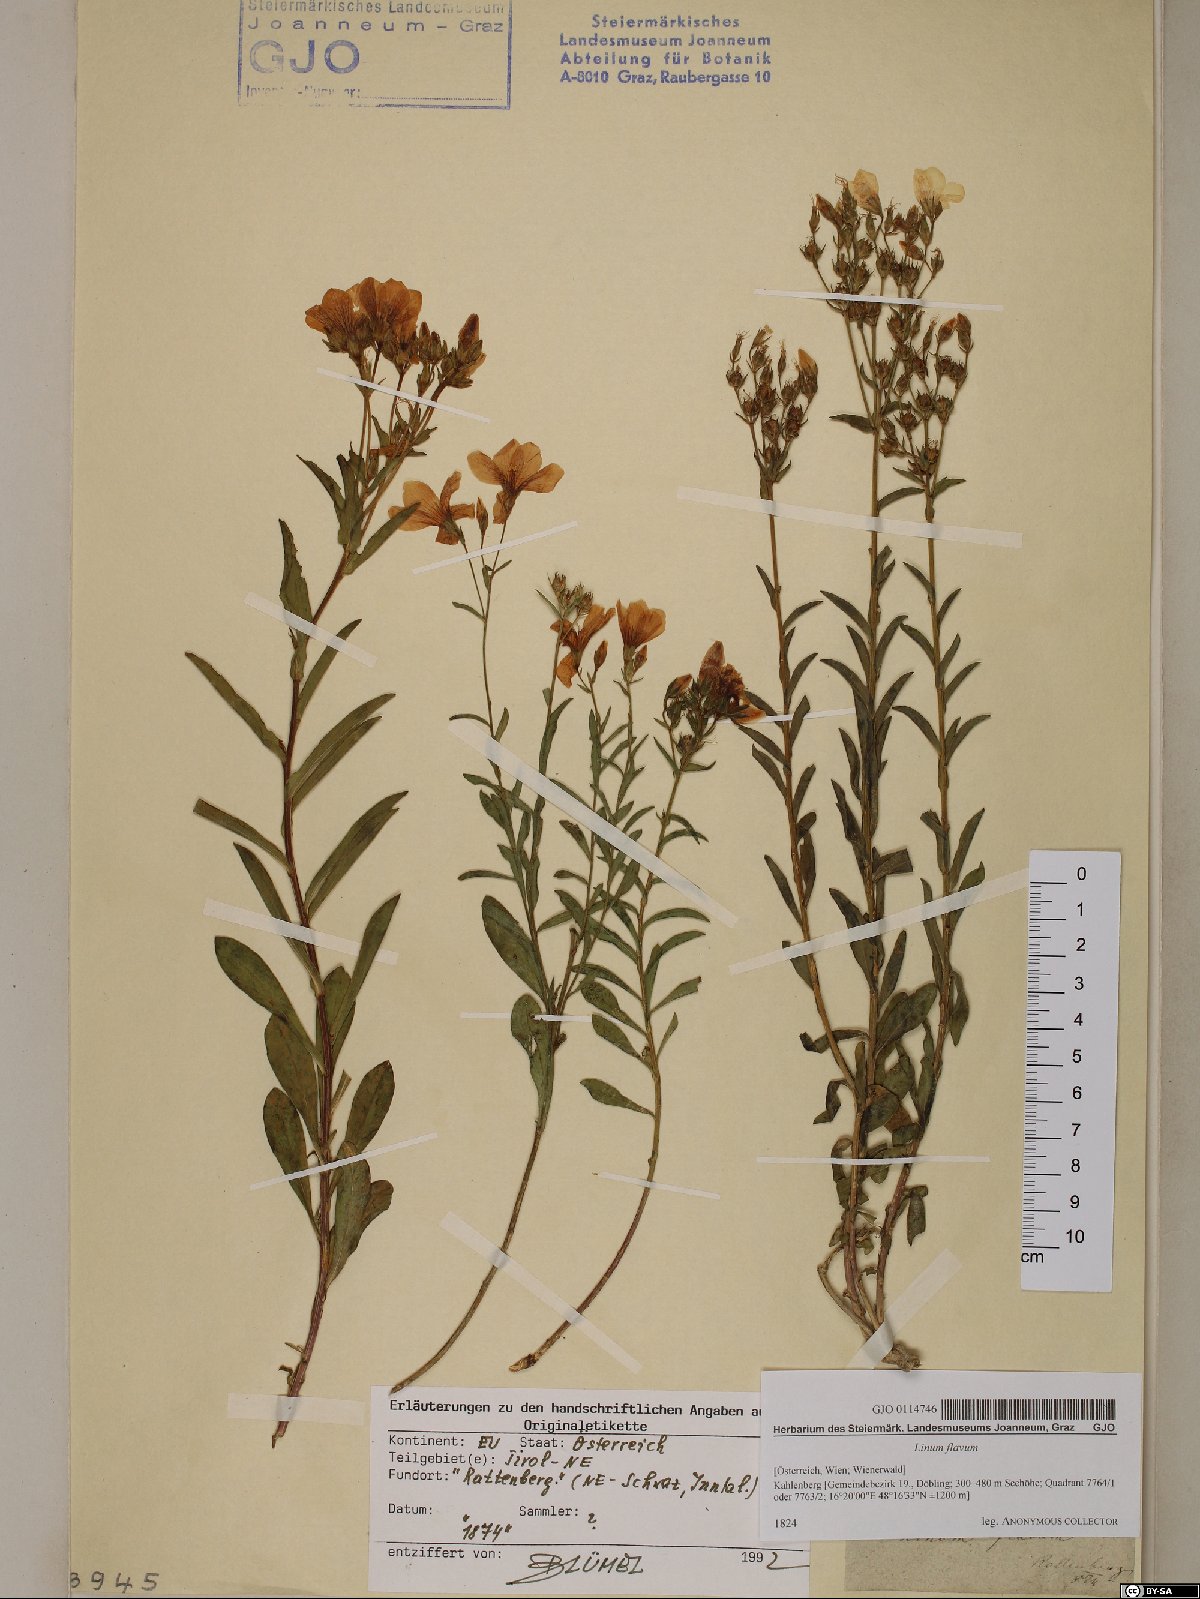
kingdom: Plantae
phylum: Tracheophyta
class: Magnoliopsida
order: Malpighiales
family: Linaceae
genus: Linum
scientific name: Linum flavum
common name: Yellow flax
